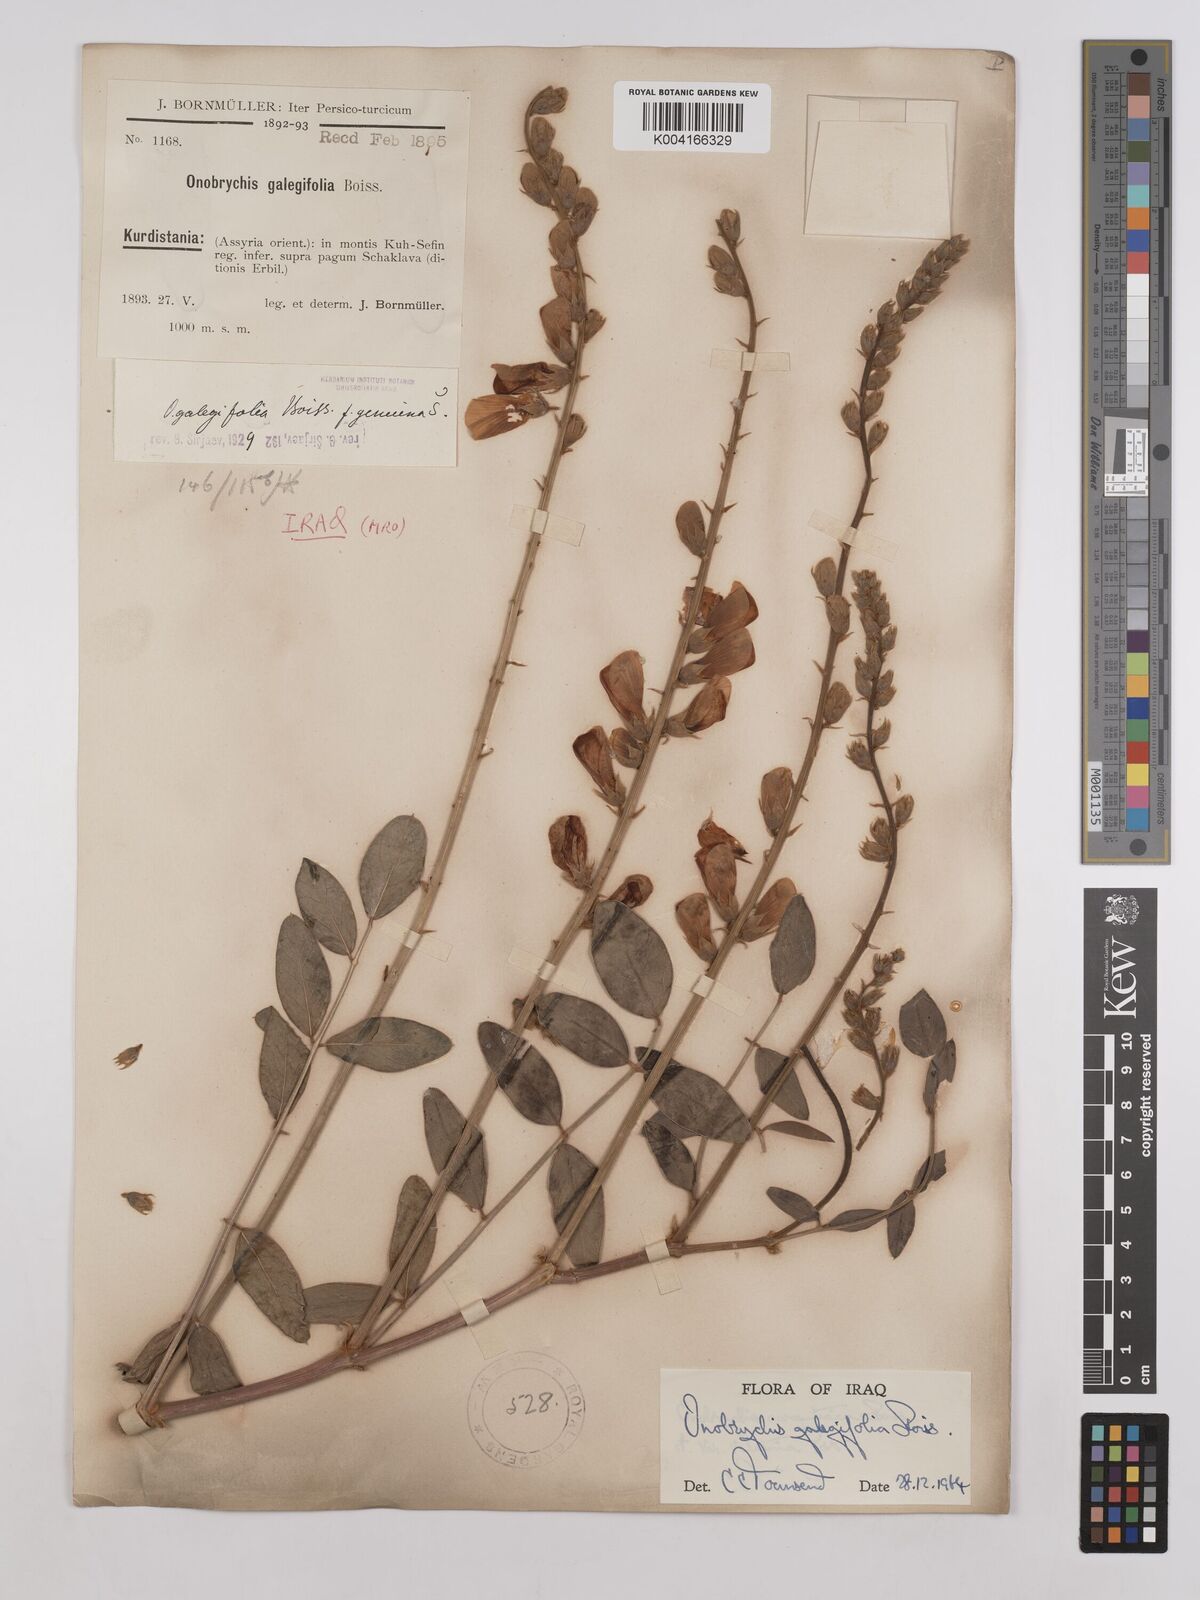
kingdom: Plantae
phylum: Tracheophyta
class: Magnoliopsida
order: Fabales
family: Fabaceae
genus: Onobrychis
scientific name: Onobrychis galegifolia
